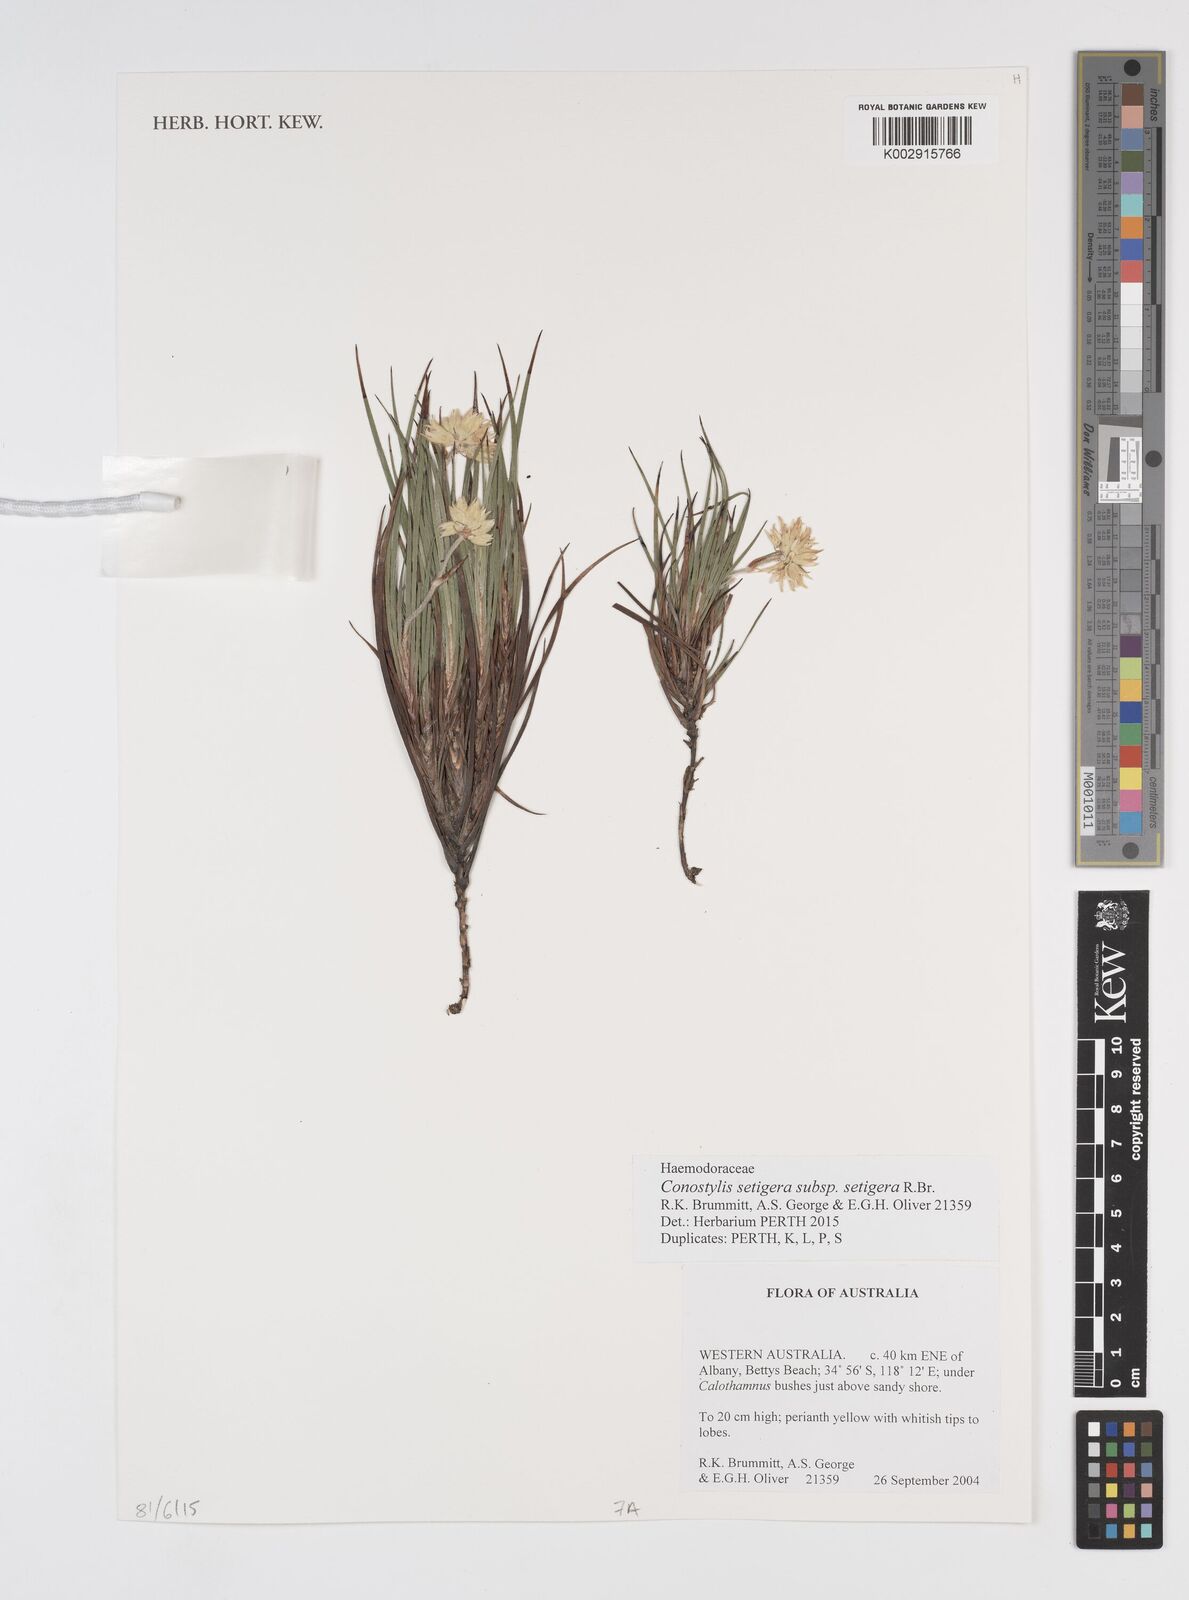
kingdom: Plantae
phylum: Tracheophyta
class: Liliopsida
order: Commelinales
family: Haemodoraceae
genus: Conostylis
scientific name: Conostylis setigera
